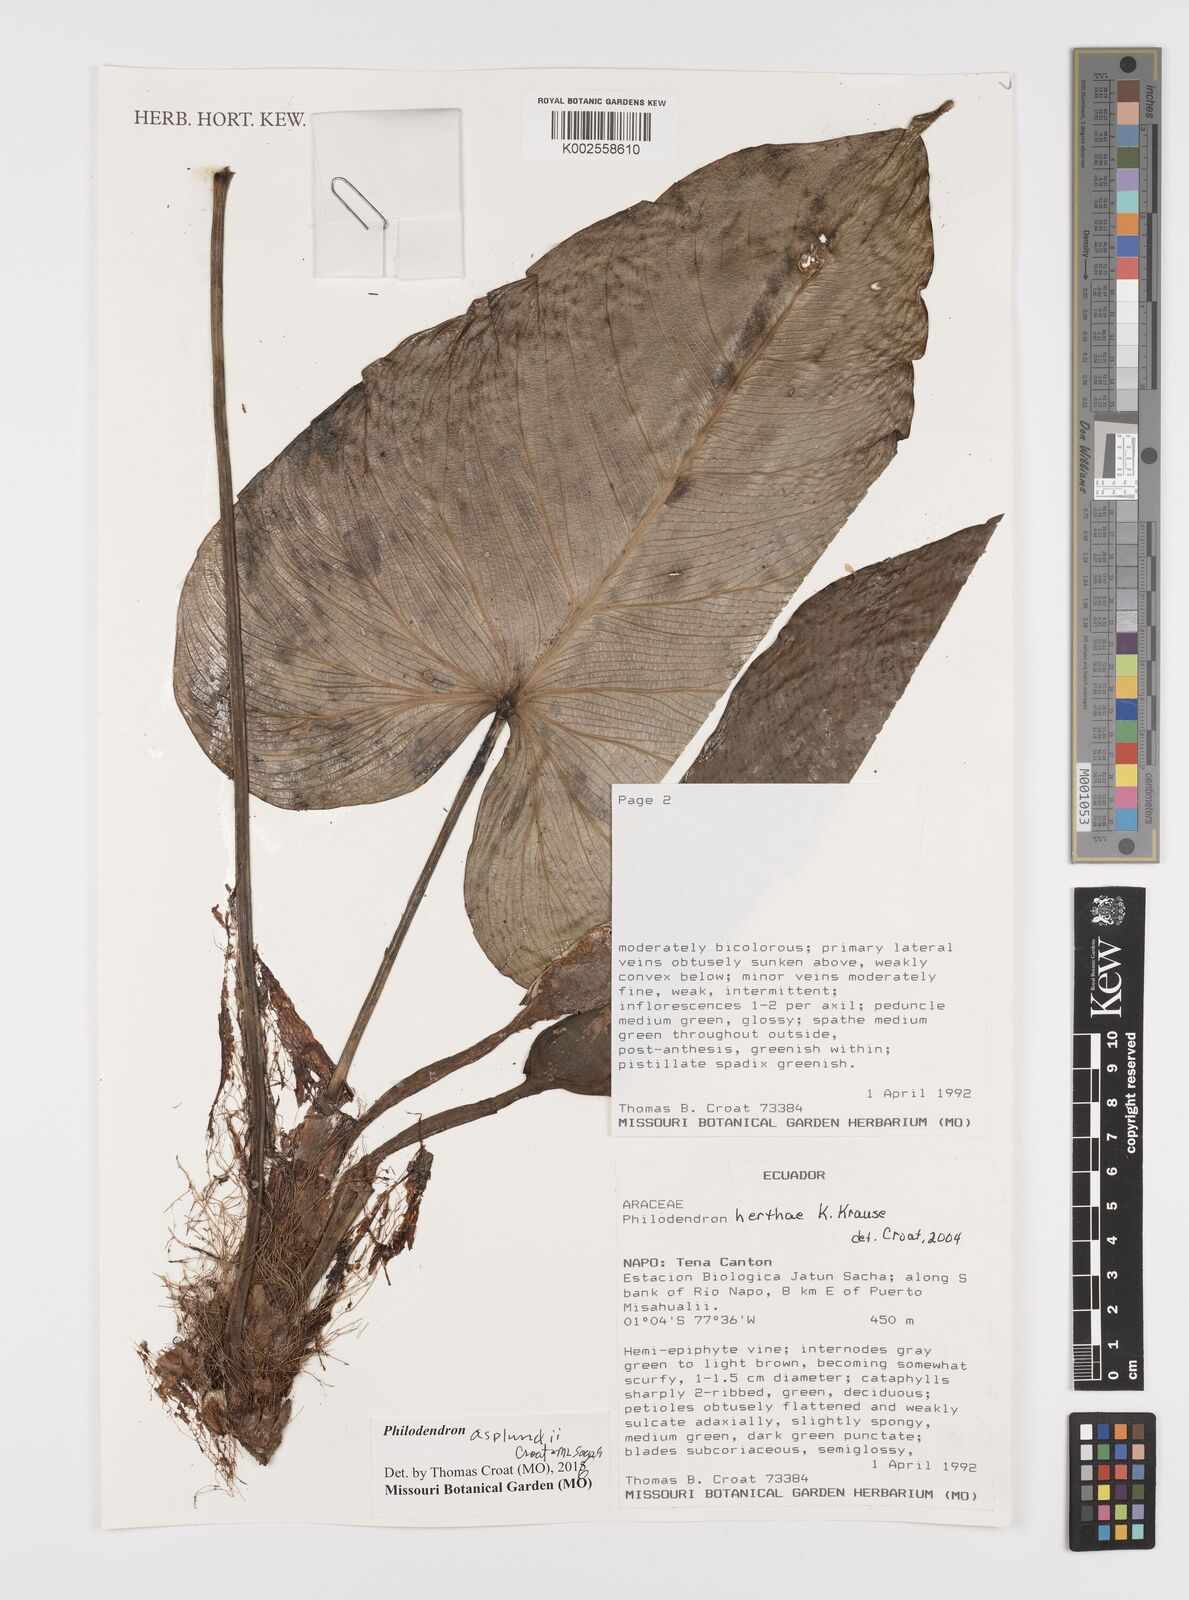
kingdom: Plantae
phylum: Tracheophyta
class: Liliopsida
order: Alismatales
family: Araceae
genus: Philodendron
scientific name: Philodendron asplundii
